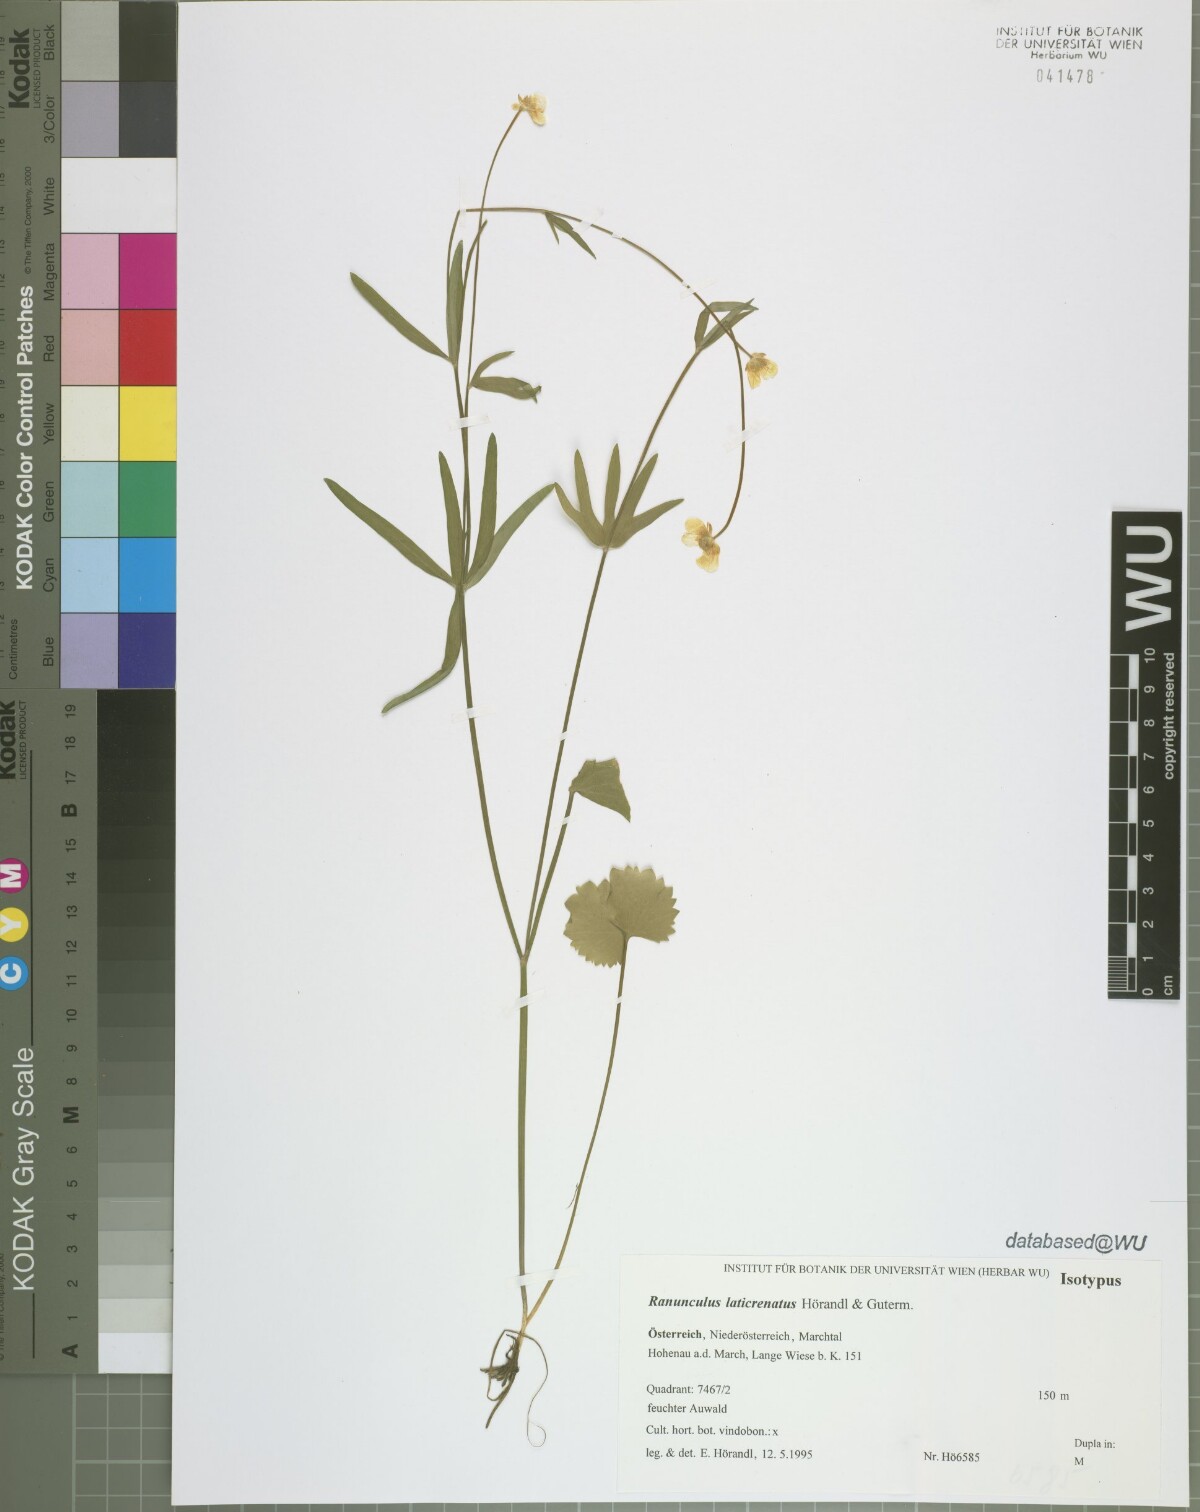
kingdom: Plantae
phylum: Tracheophyta
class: Magnoliopsida
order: Ranunculales
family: Ranunculaceae
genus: Ranunculus
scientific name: Ranunculus laticrenatus
